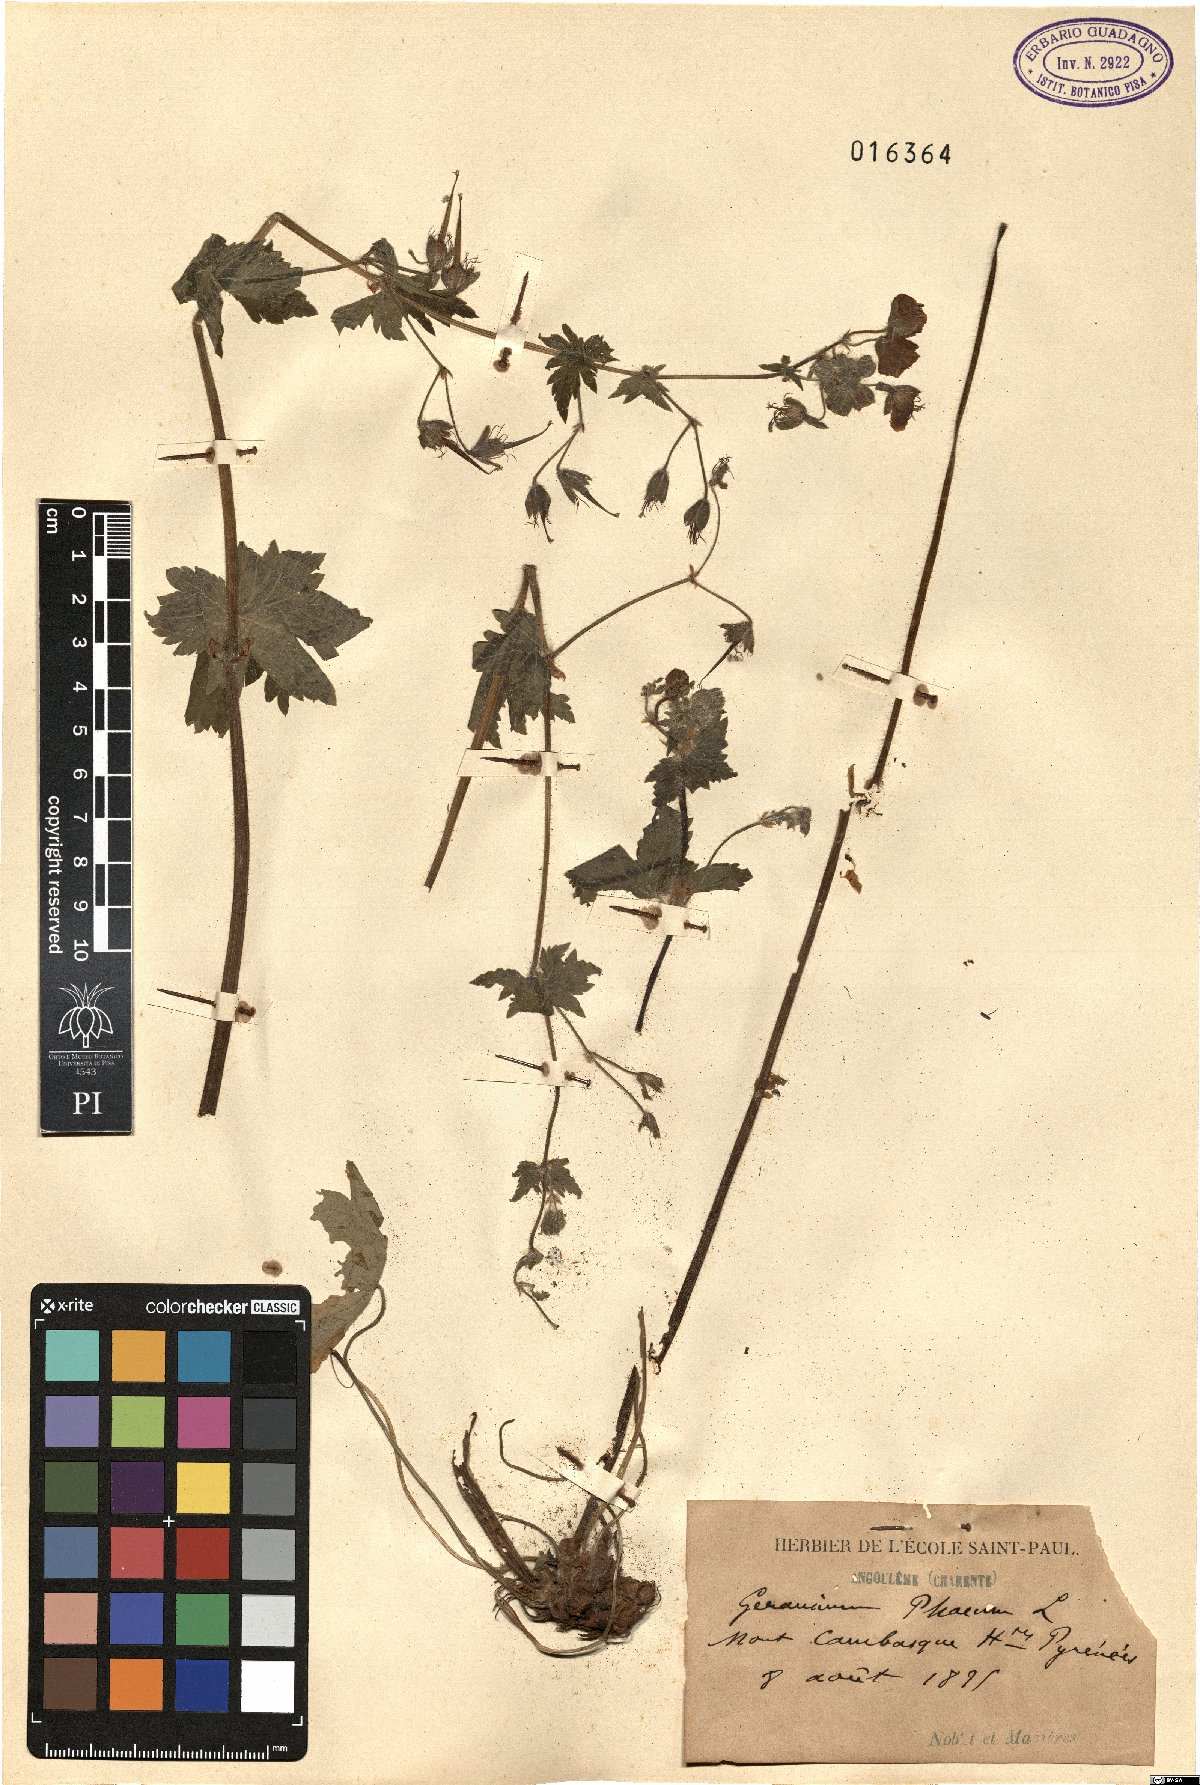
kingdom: Plantae
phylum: Tracheophyta
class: Magnoliopsida
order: Geraniales
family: Geraniaceae
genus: Geranium
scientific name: Geranium phaeum
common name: Dusky crane's-bill
